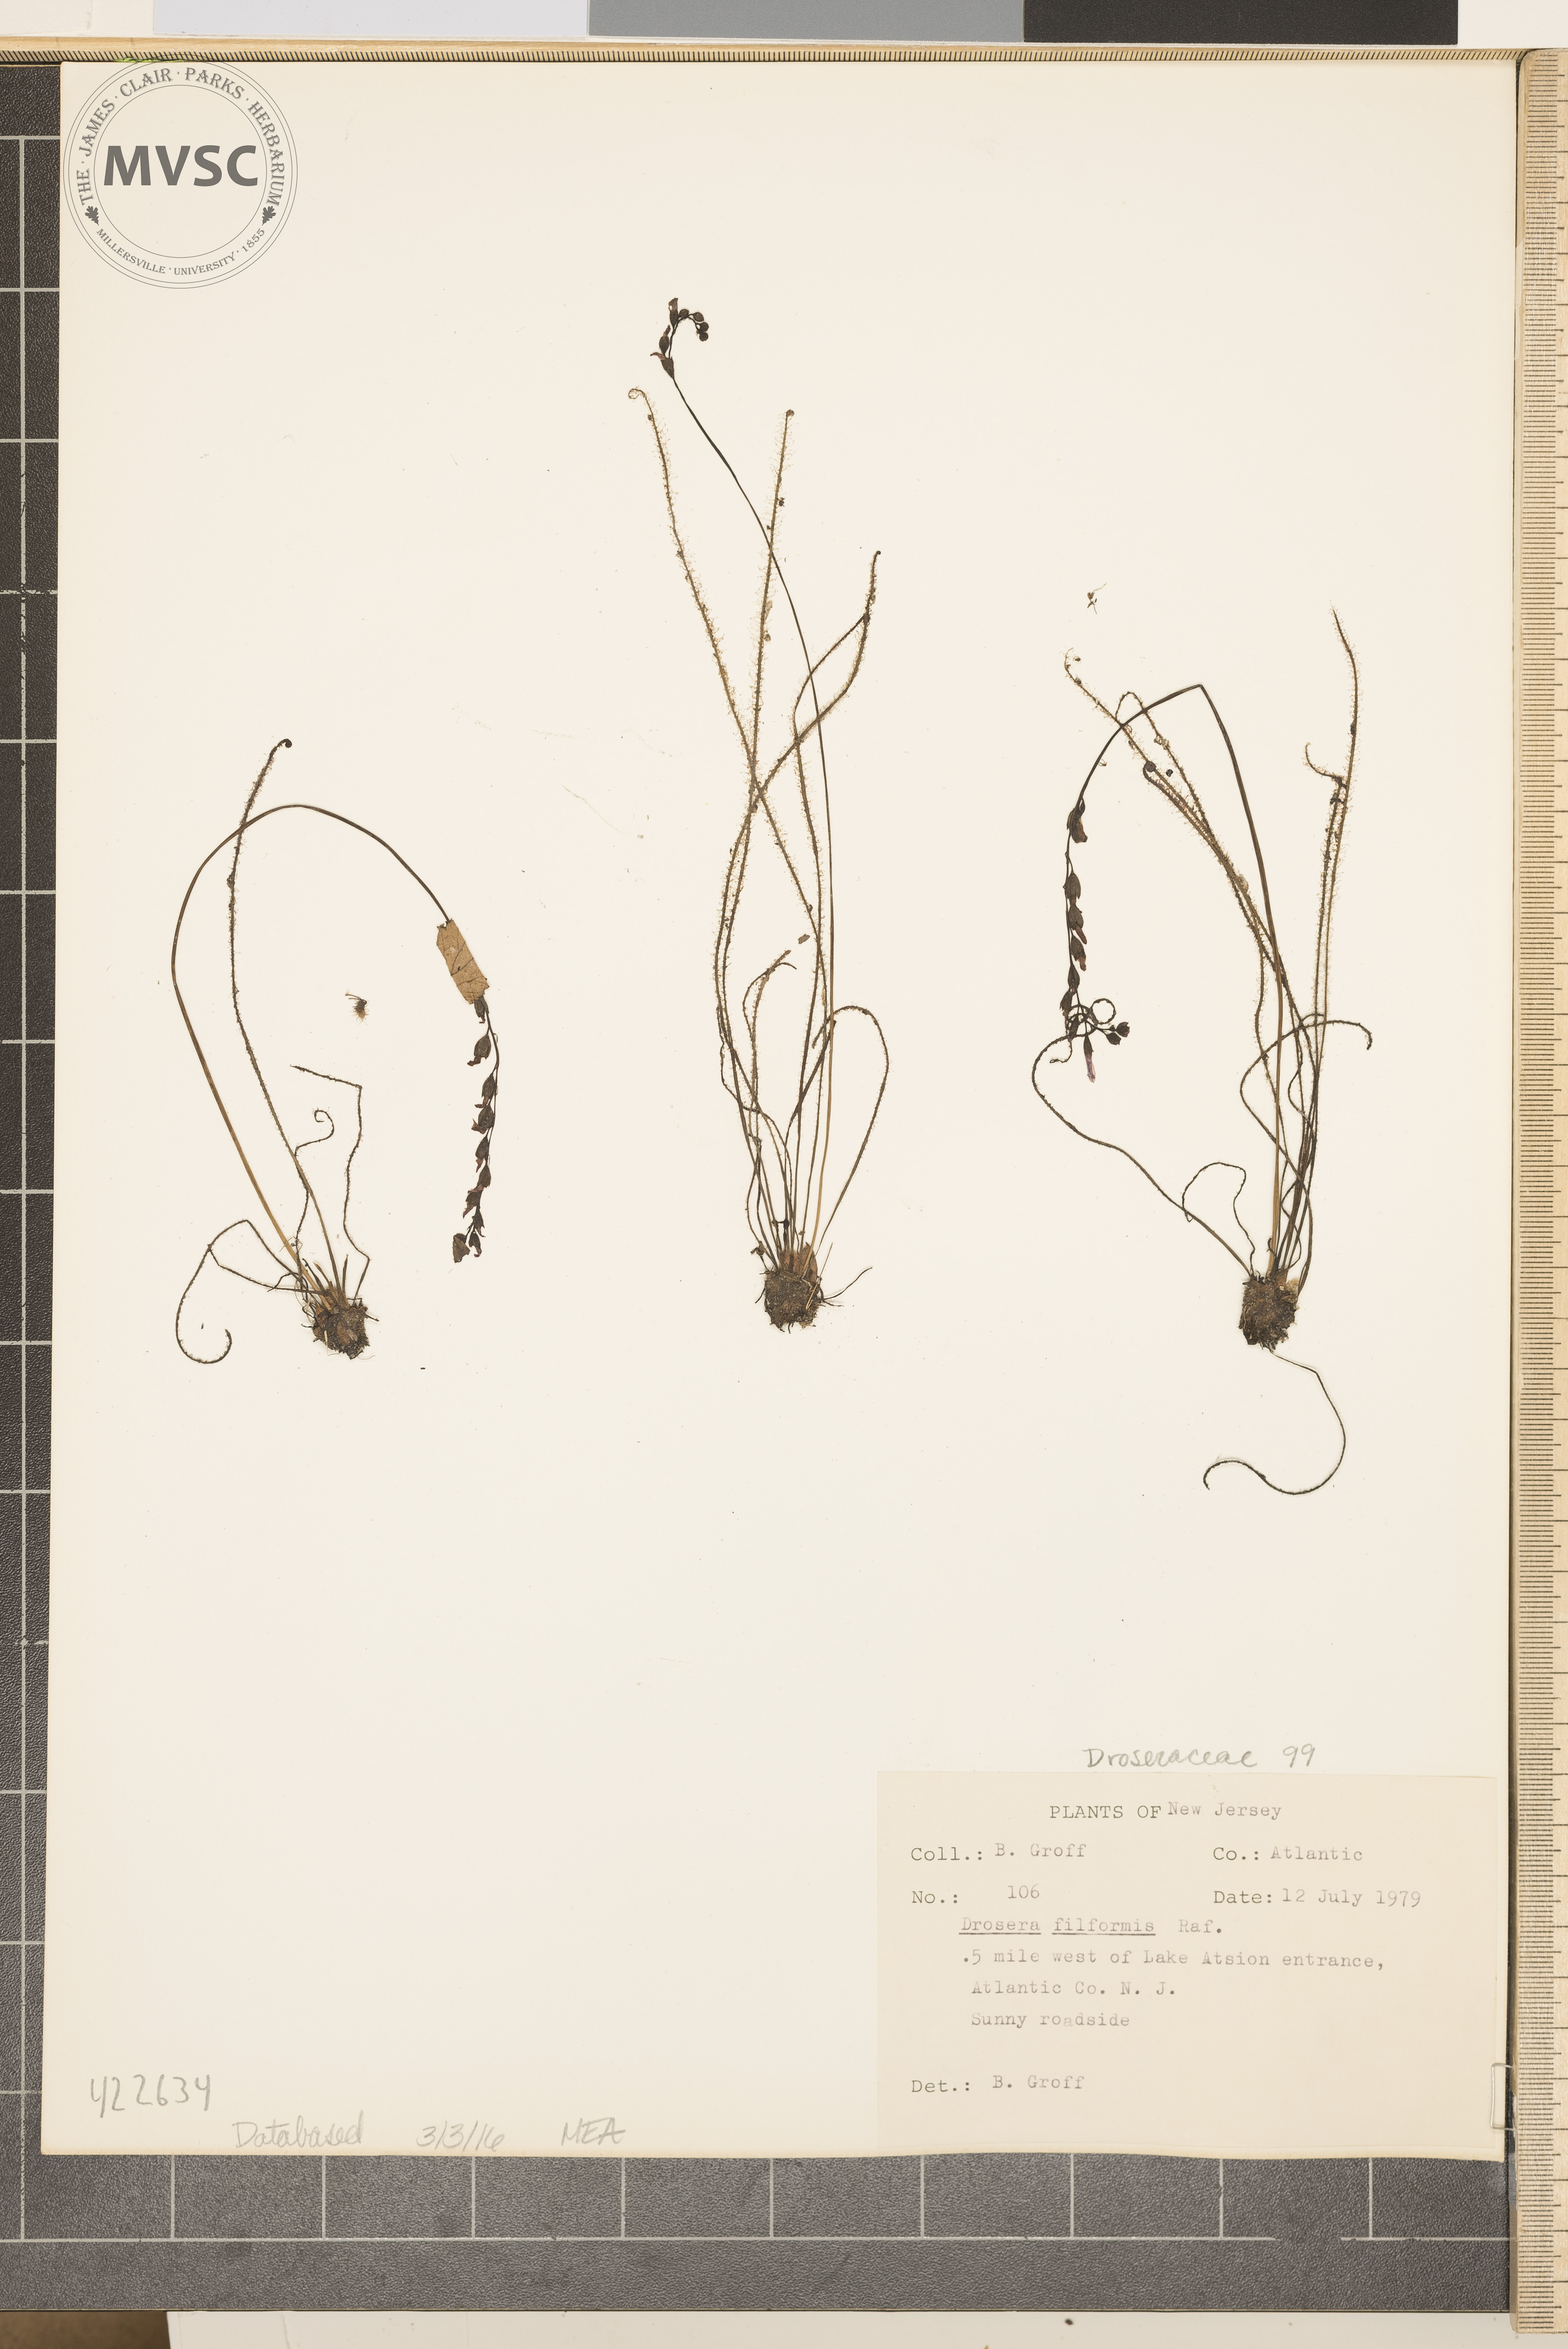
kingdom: Plantae
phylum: Tracheophyta
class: Magnoliopsida
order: Caryophyllales
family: Droseraceae
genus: Drosera
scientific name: Drosera filiformis
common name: Thread-leaved sundew
